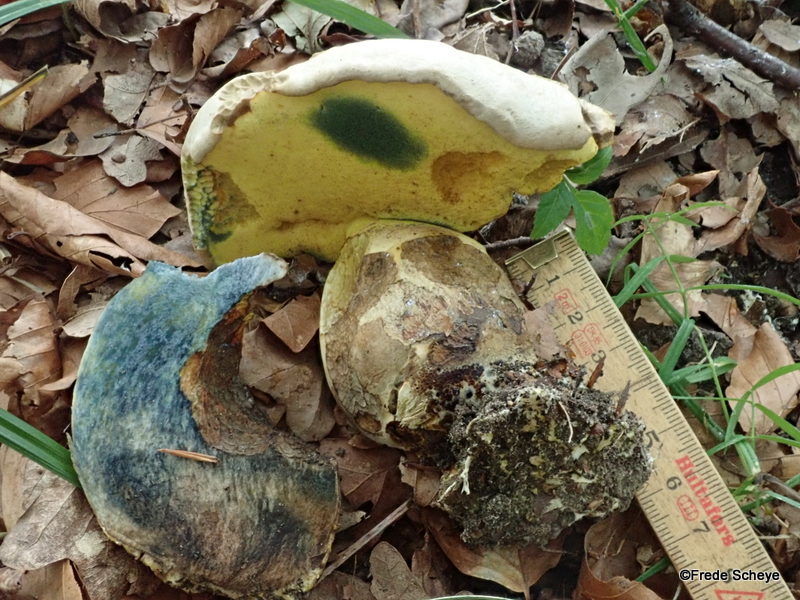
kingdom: Fungi
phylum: Basidiomycota
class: Agaricomycetes
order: Boletales
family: Boletaceae
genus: Caloboletus
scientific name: Caloboletus radicans
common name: rod-rørhat
